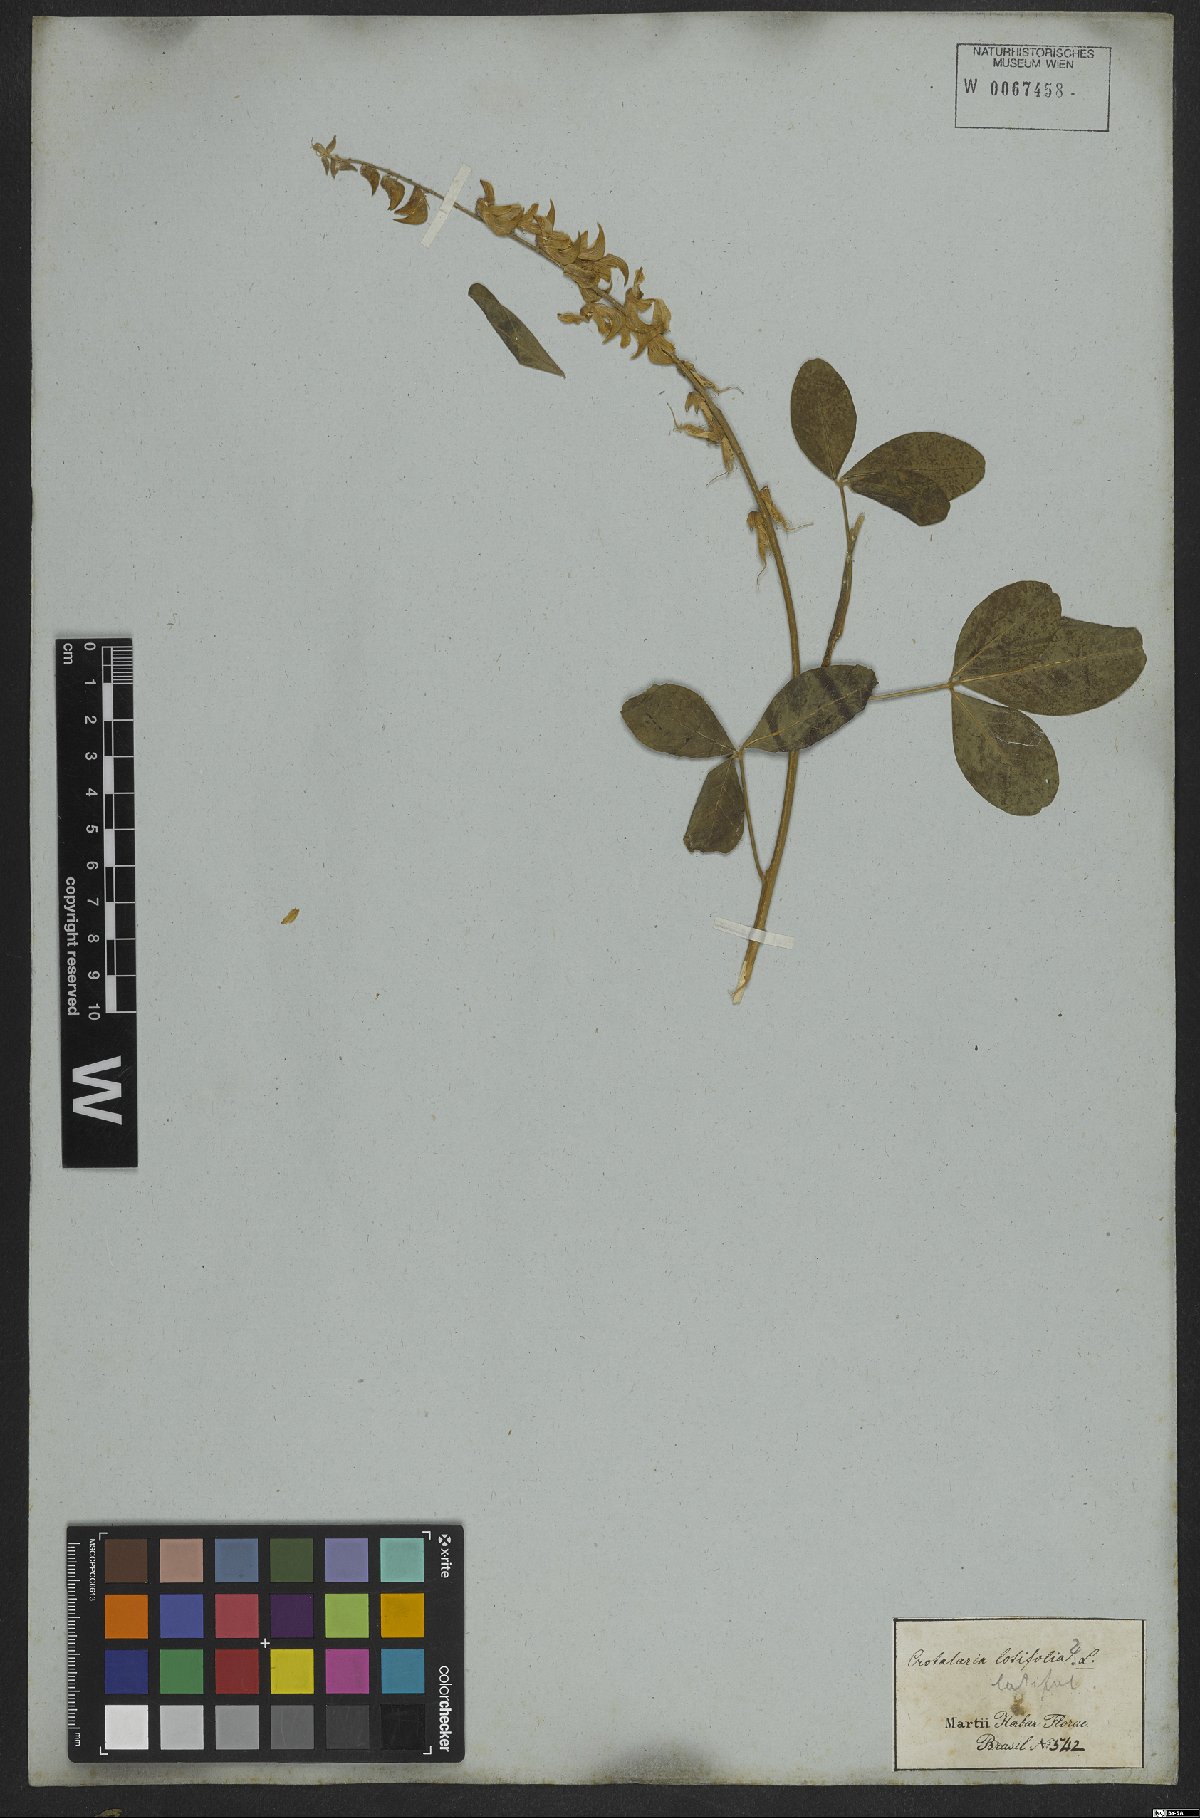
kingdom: Plantae
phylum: Tracheophyta
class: Magnoliopsida
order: Fabales
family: Fabaceae
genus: Crotalaria
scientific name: Crotalaria globifera
